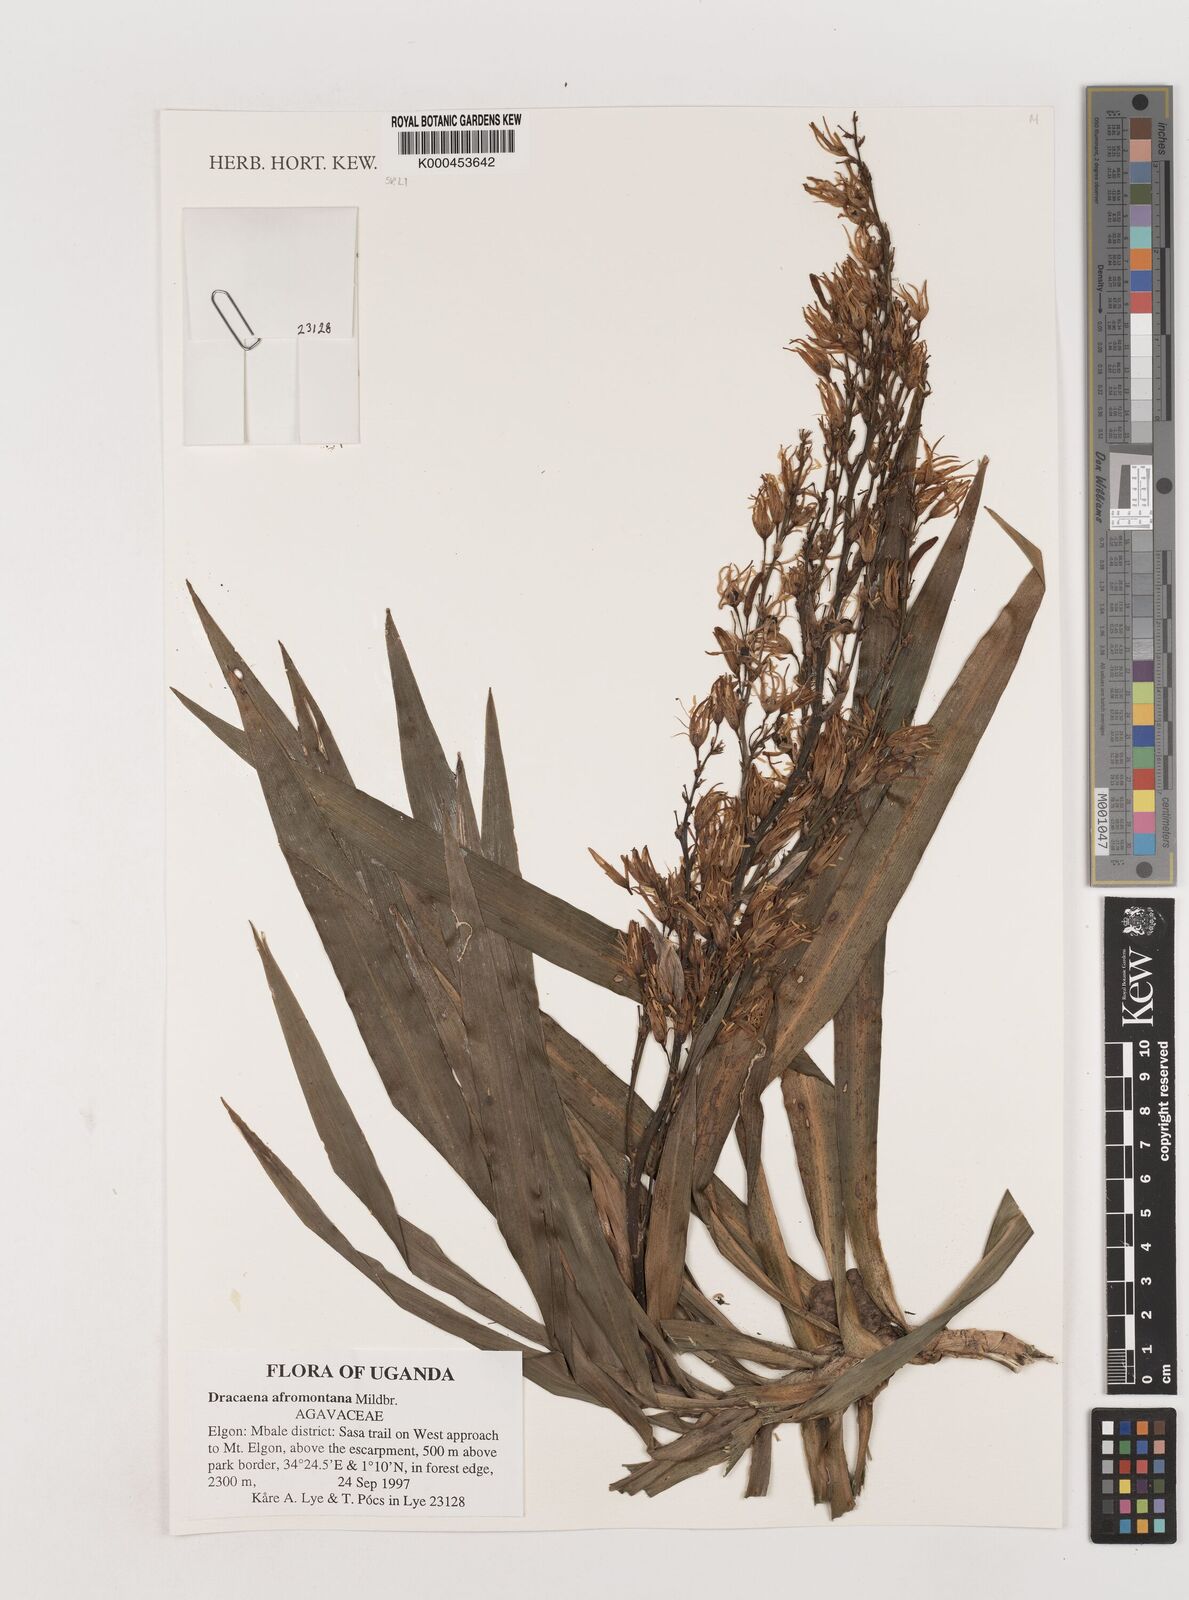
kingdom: Plantae
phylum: Tracheophyta
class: Liliopsida
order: Asparagales
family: Asparagaceae
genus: Dracaena
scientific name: Dracaena afromontana
